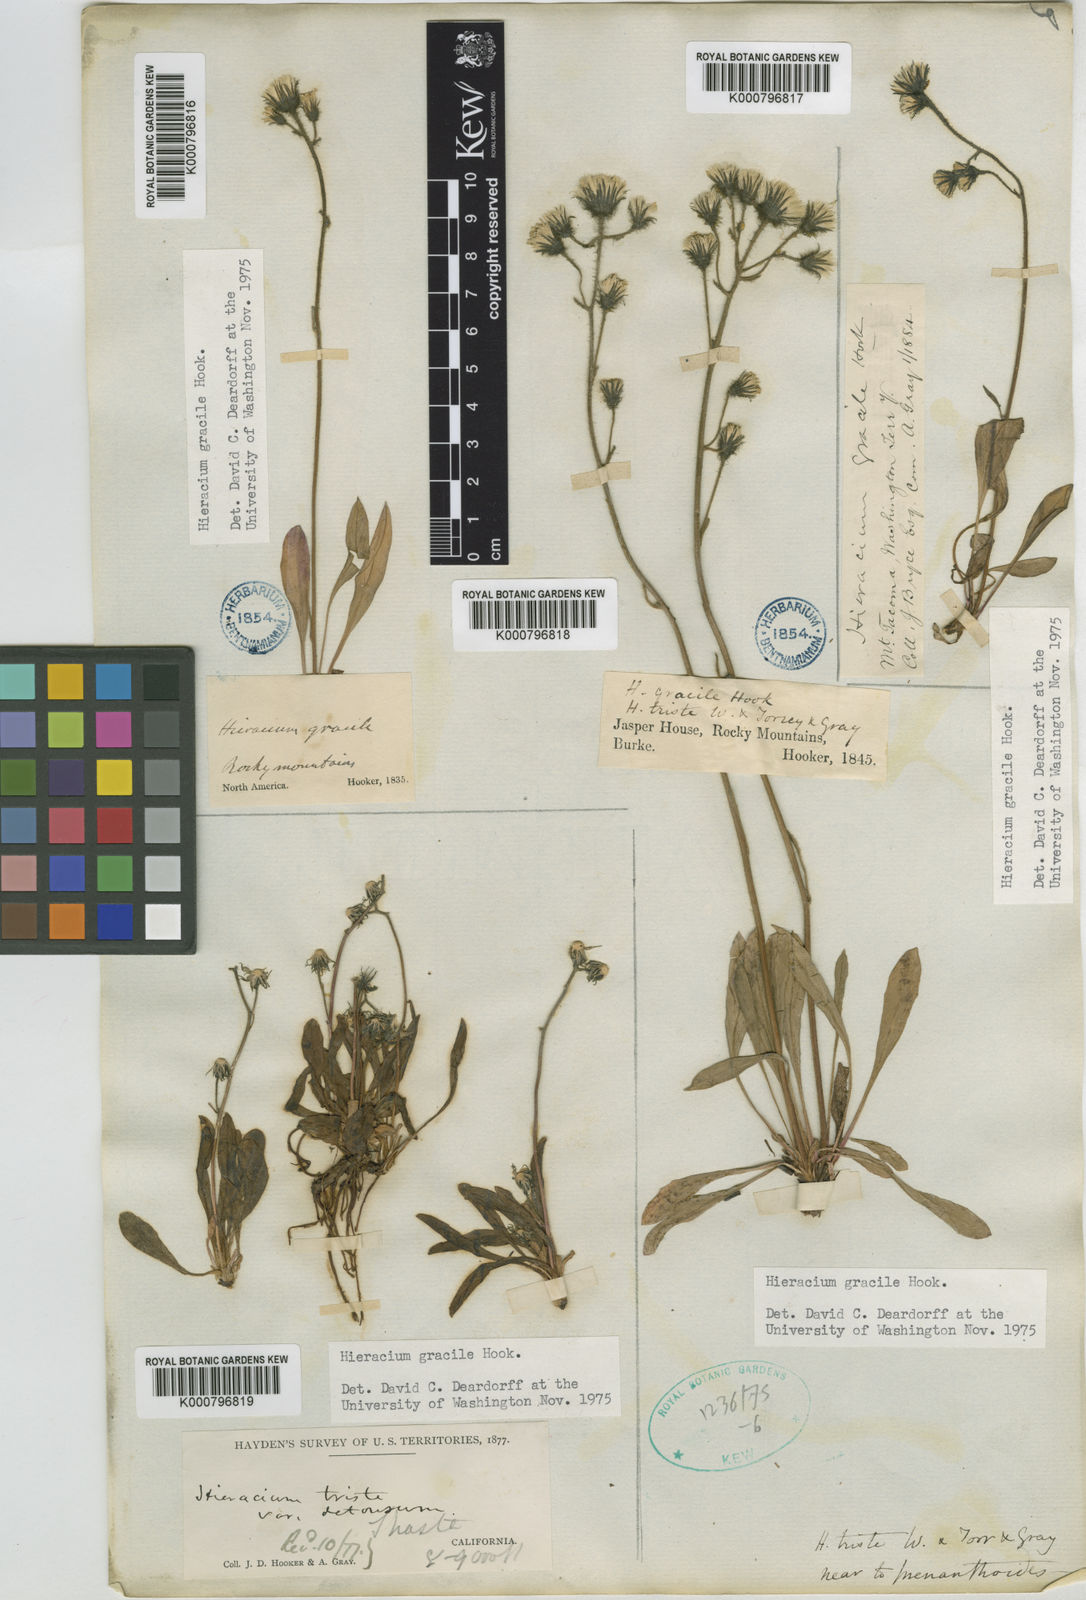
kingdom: Plantae
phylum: Tracheophyta
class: Magnoliopsida
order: Asterales
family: Asteraceae
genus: Hieracium
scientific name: Hieracium triste
